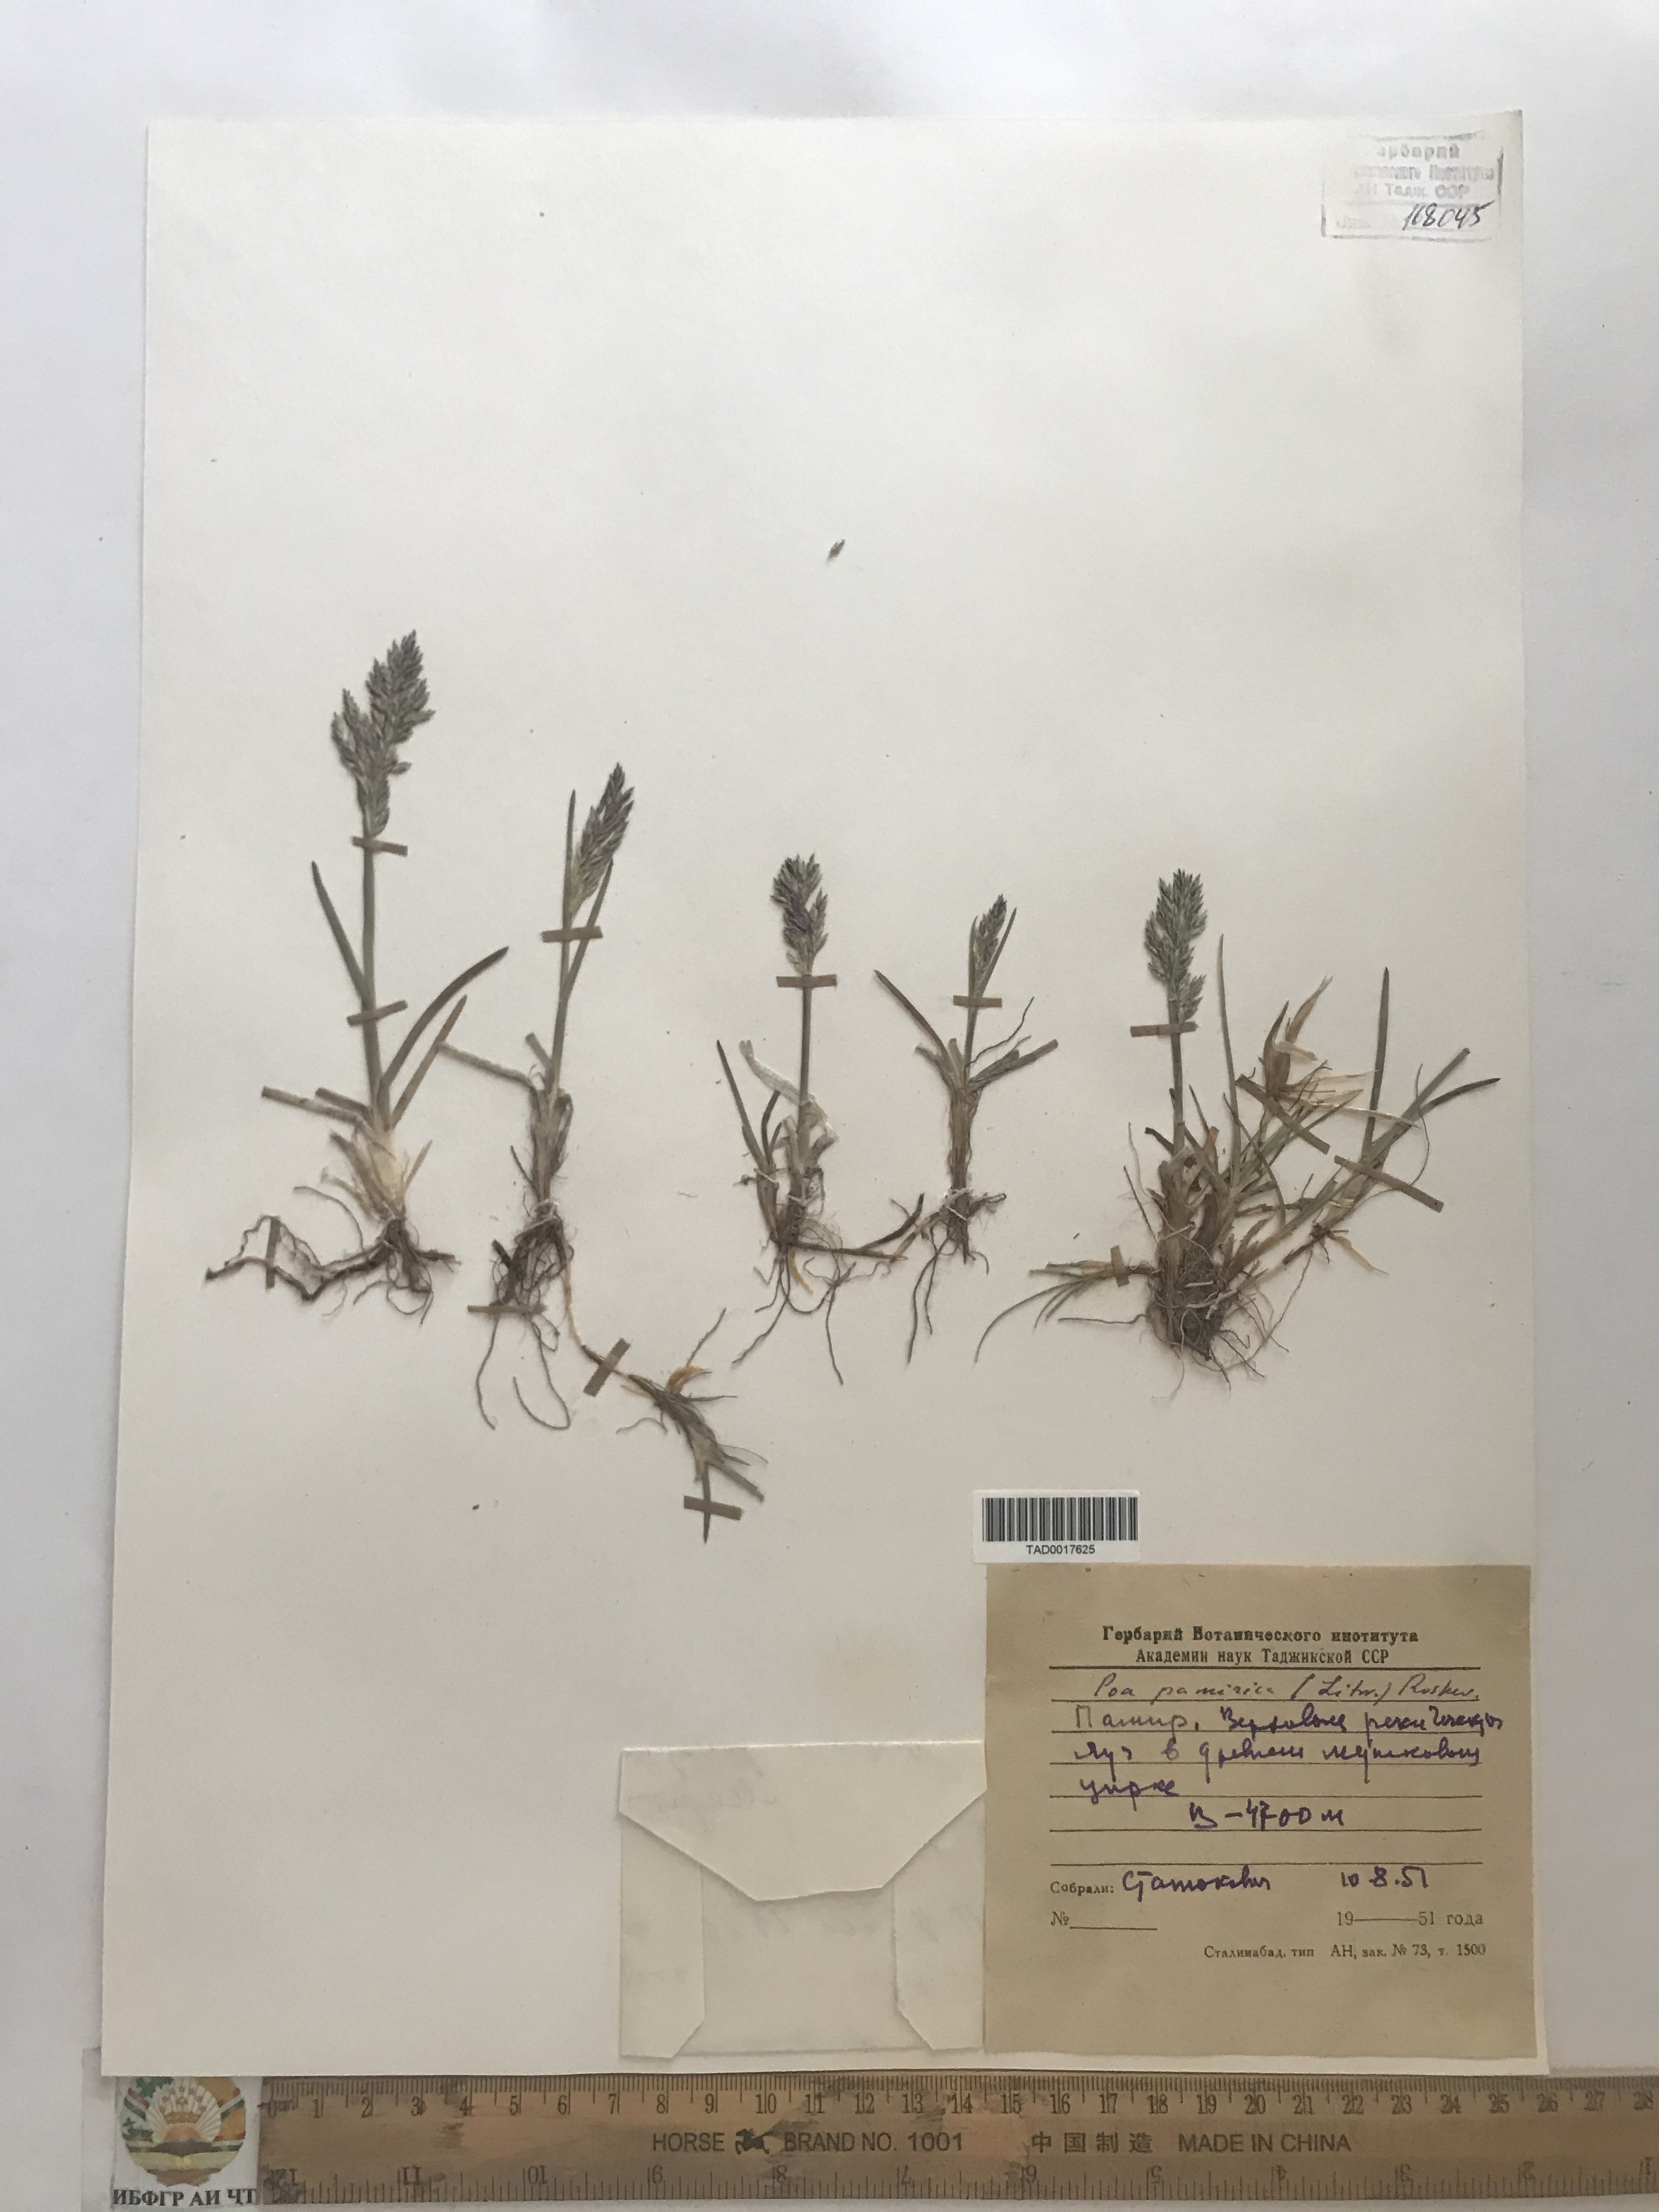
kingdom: Plantae
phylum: Tracheophyta
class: Liliopsida
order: Poales
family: Poaceae
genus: Poa
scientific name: Poa tianschanica
